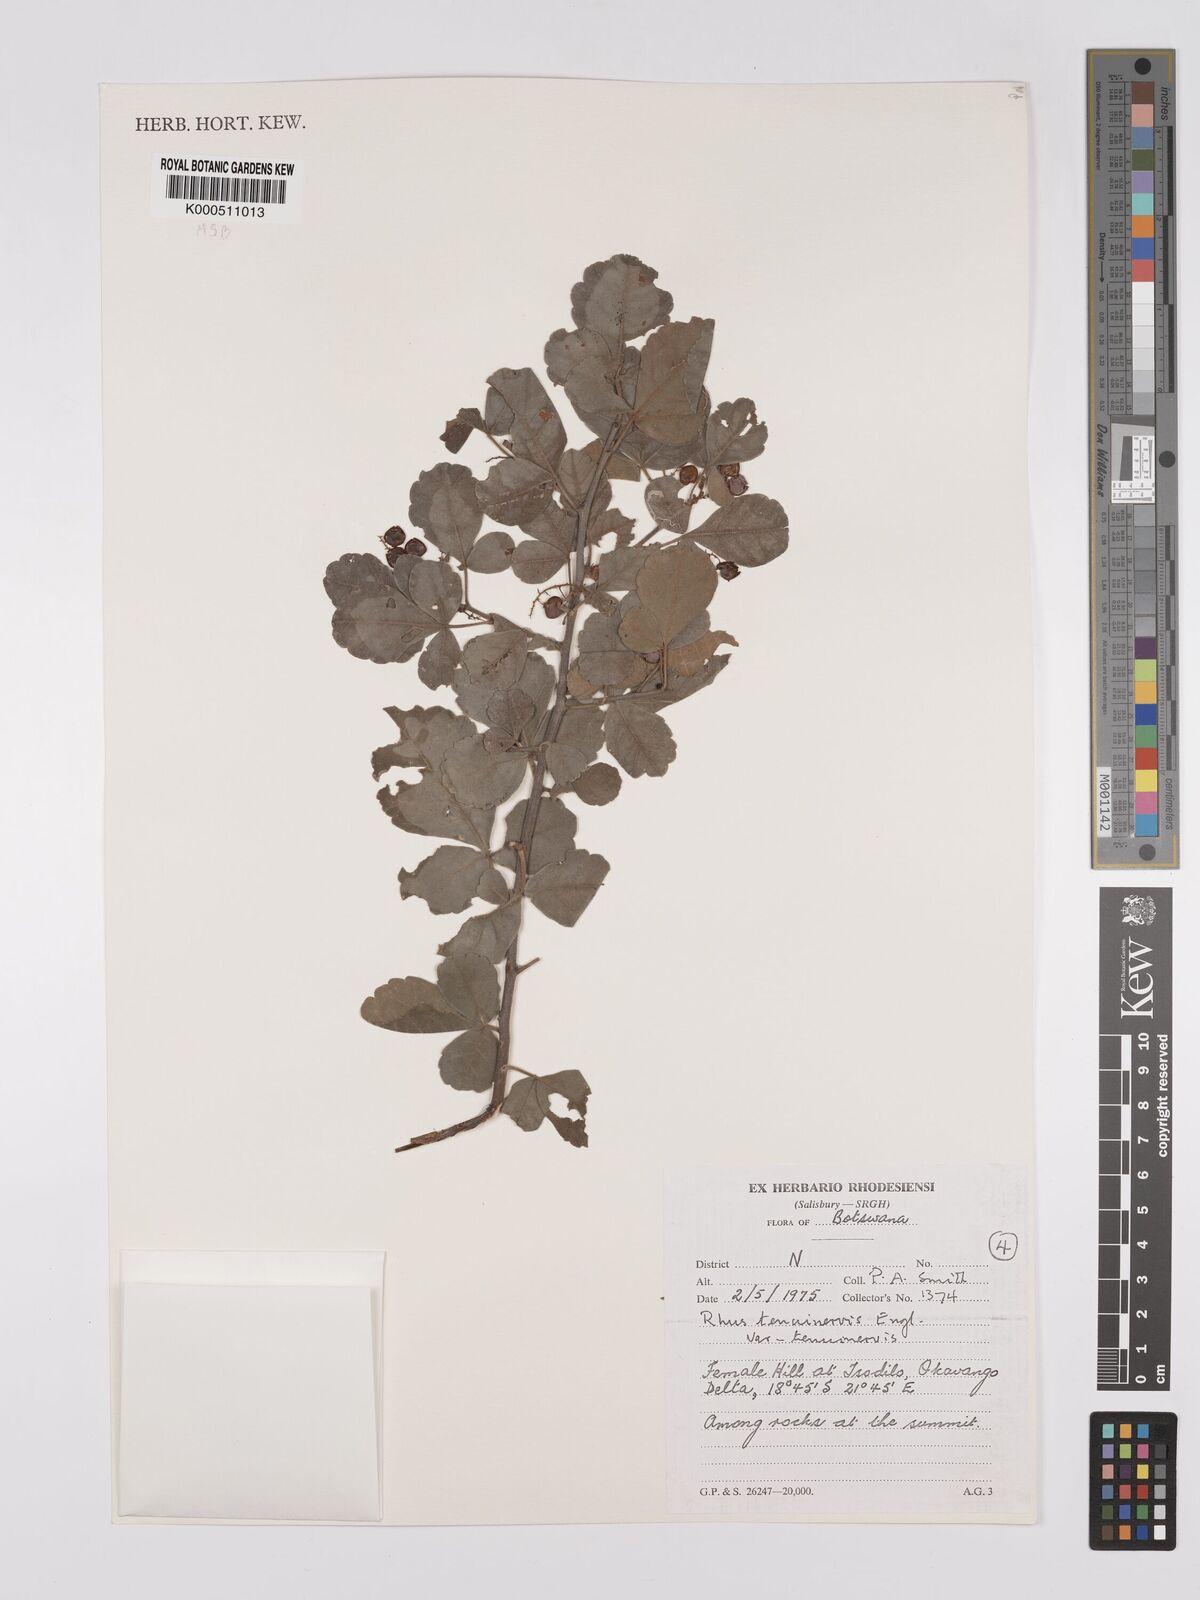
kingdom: Plantae
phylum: Tracheophyta
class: Magnoliopsida
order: Sapindales
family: Anacardiaceae
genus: Searsia
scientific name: Searsia tenuinervis
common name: Hyaena taaibos
